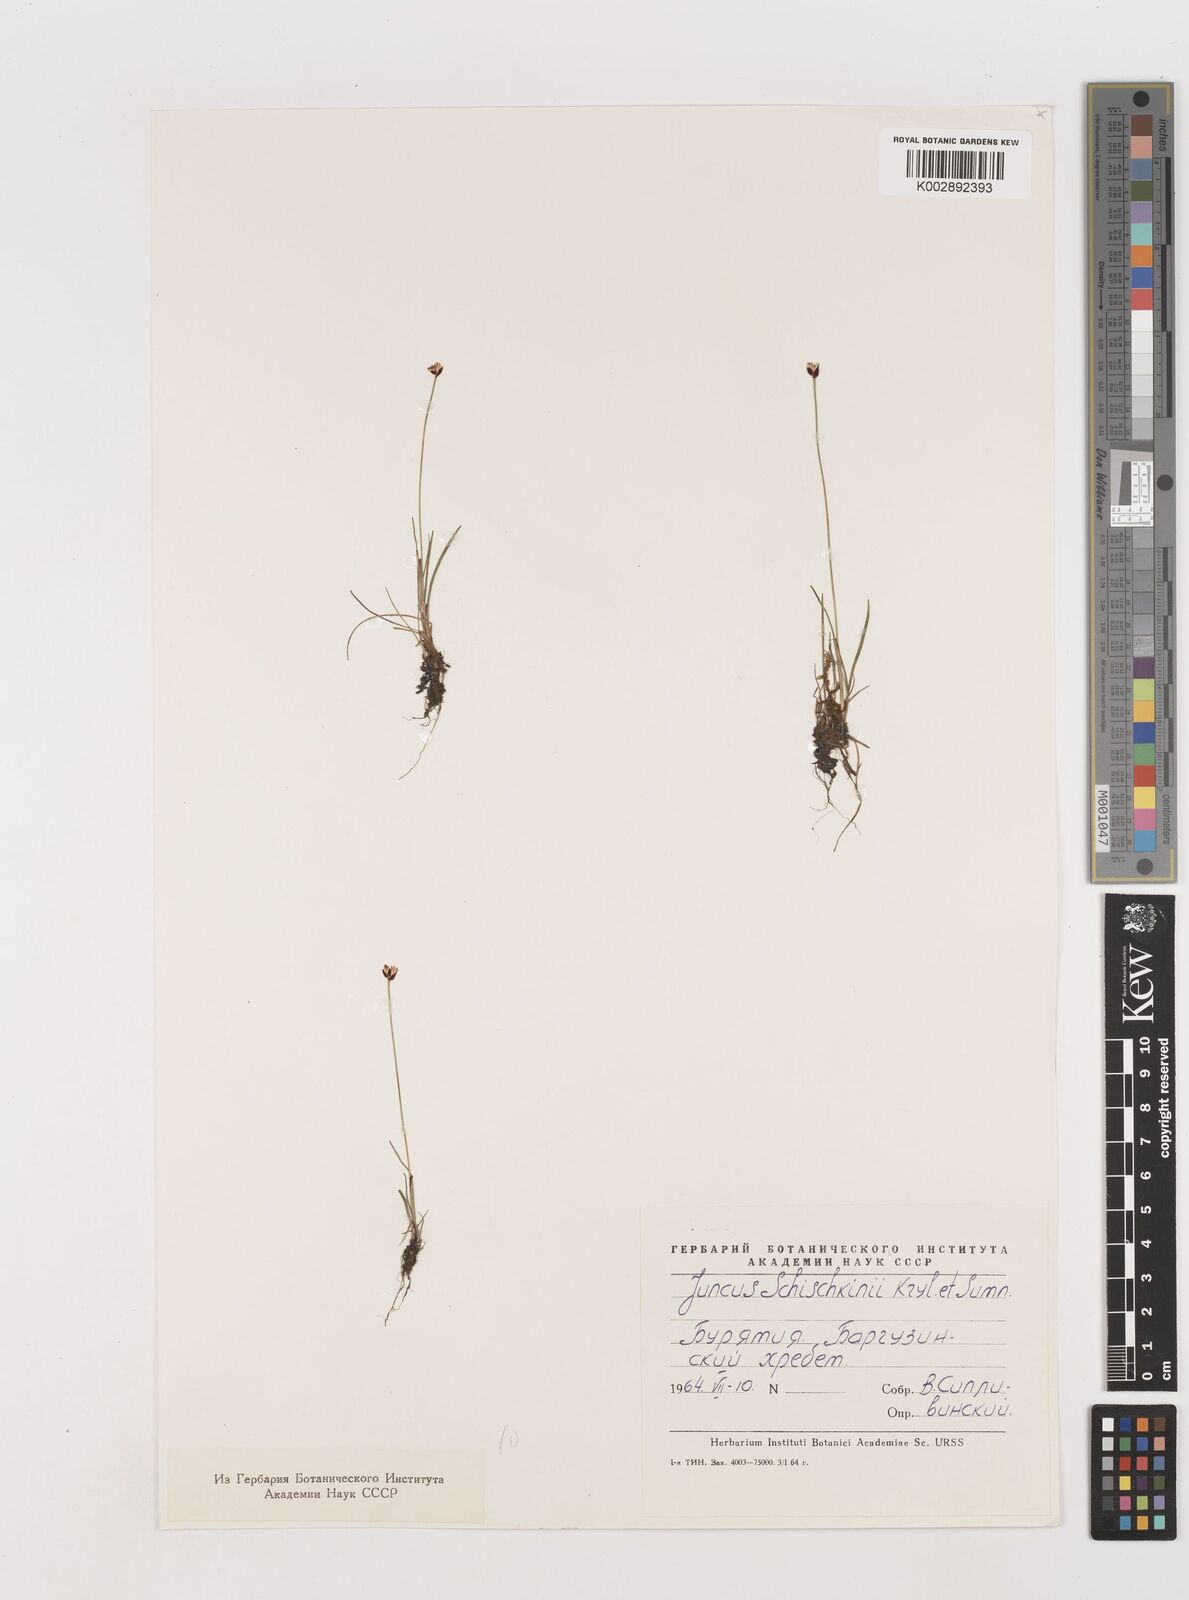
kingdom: Plantae
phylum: Tracheophyta
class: Liliopsida
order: Poales
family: Juncaceae
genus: Juncus
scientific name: Juncus triglumis
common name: Three-flowered rush
